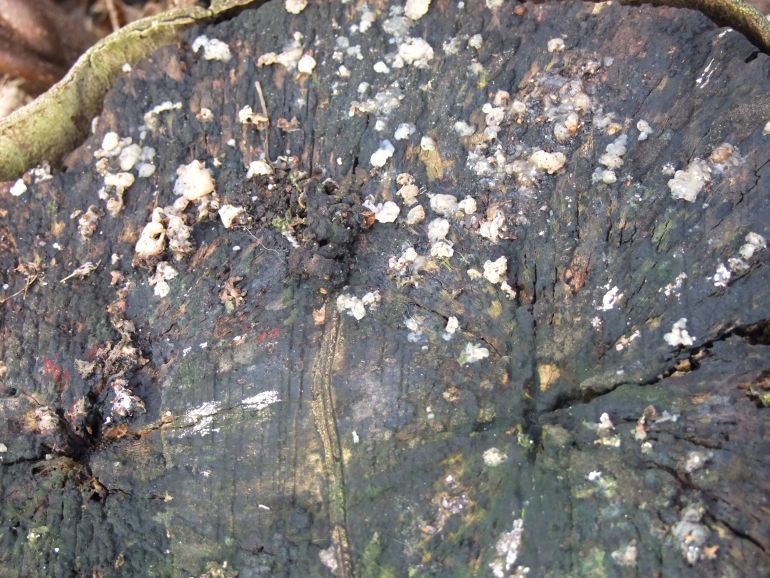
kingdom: Fungi
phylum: Basidiomycota
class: Agaricomycetes
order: Auriculariales
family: Hyaloriaceae
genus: Myxarium
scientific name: Myxarium nucleatum
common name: klar bævretop
